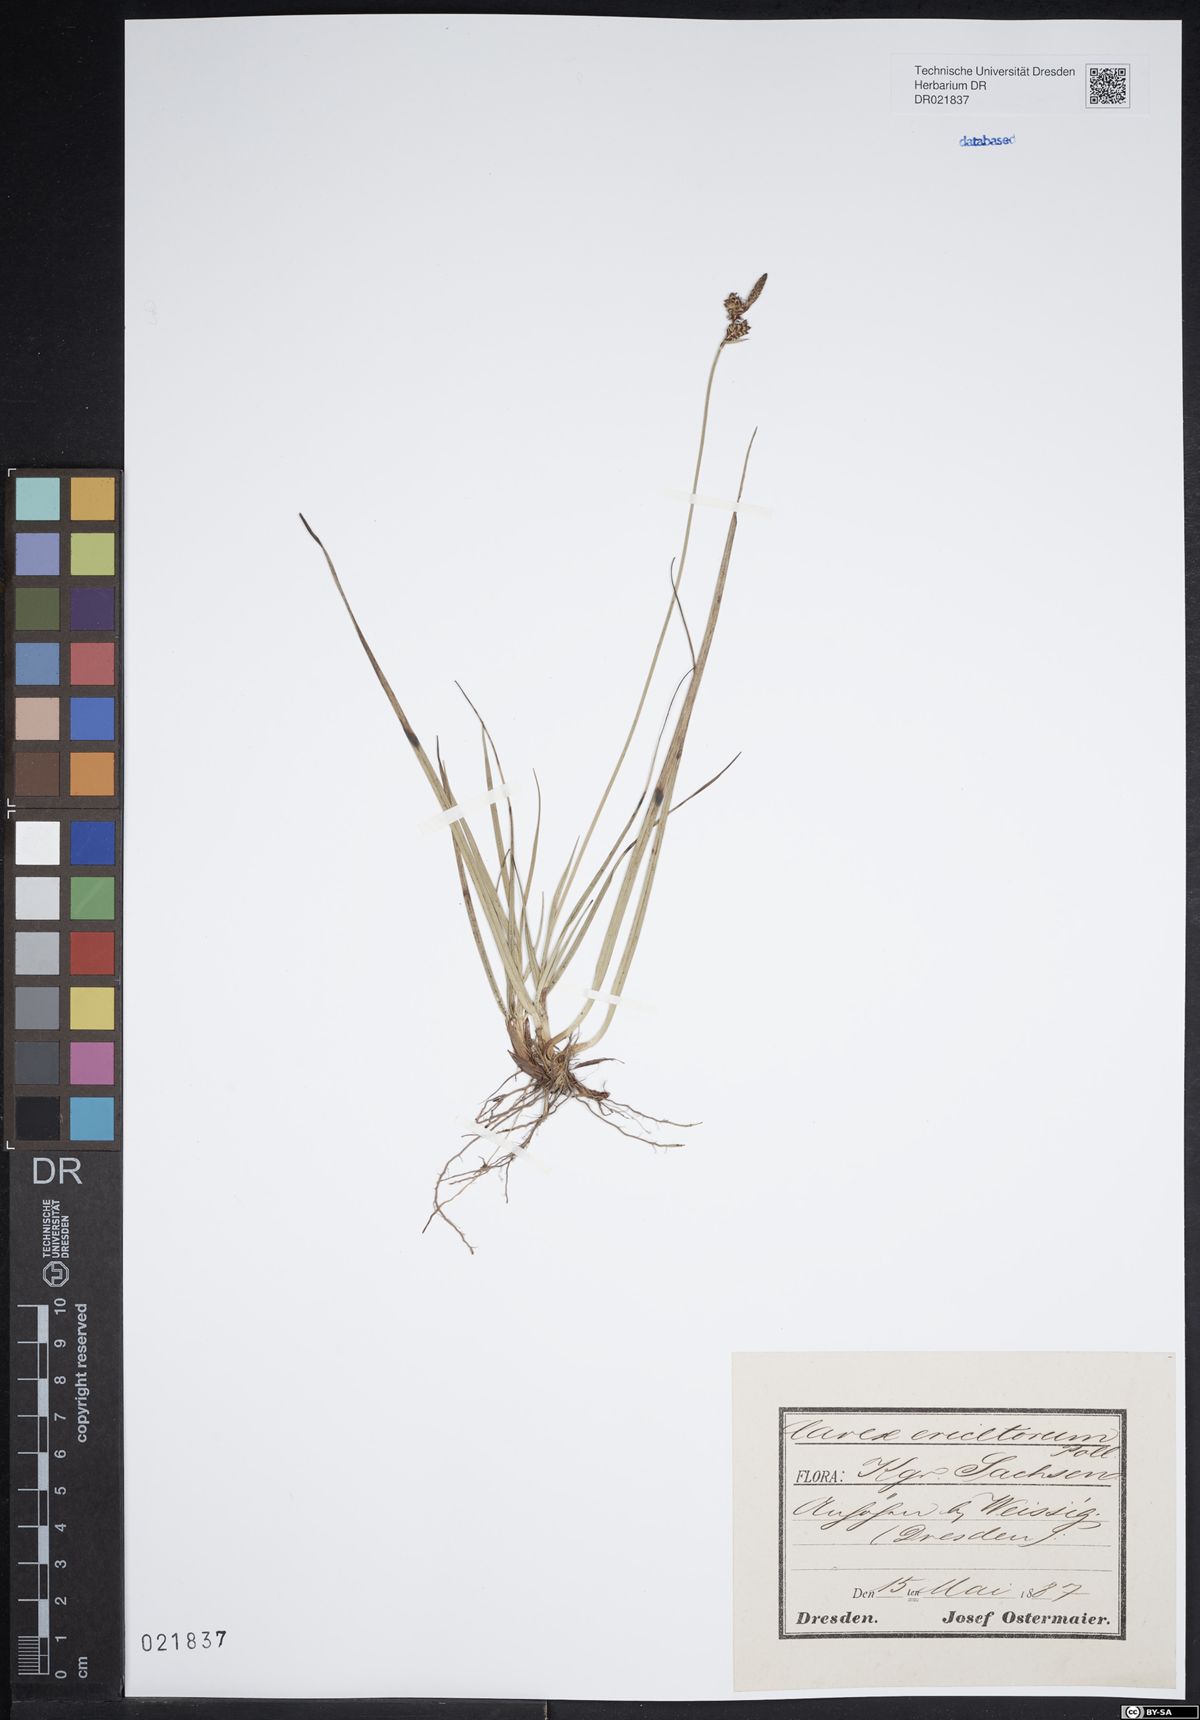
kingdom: Plantae
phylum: Tracheophyta
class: Liliopsida
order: Poales
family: Cyperaceae
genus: Carex
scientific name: Carex ericetorum
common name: Rare spring-sedge
